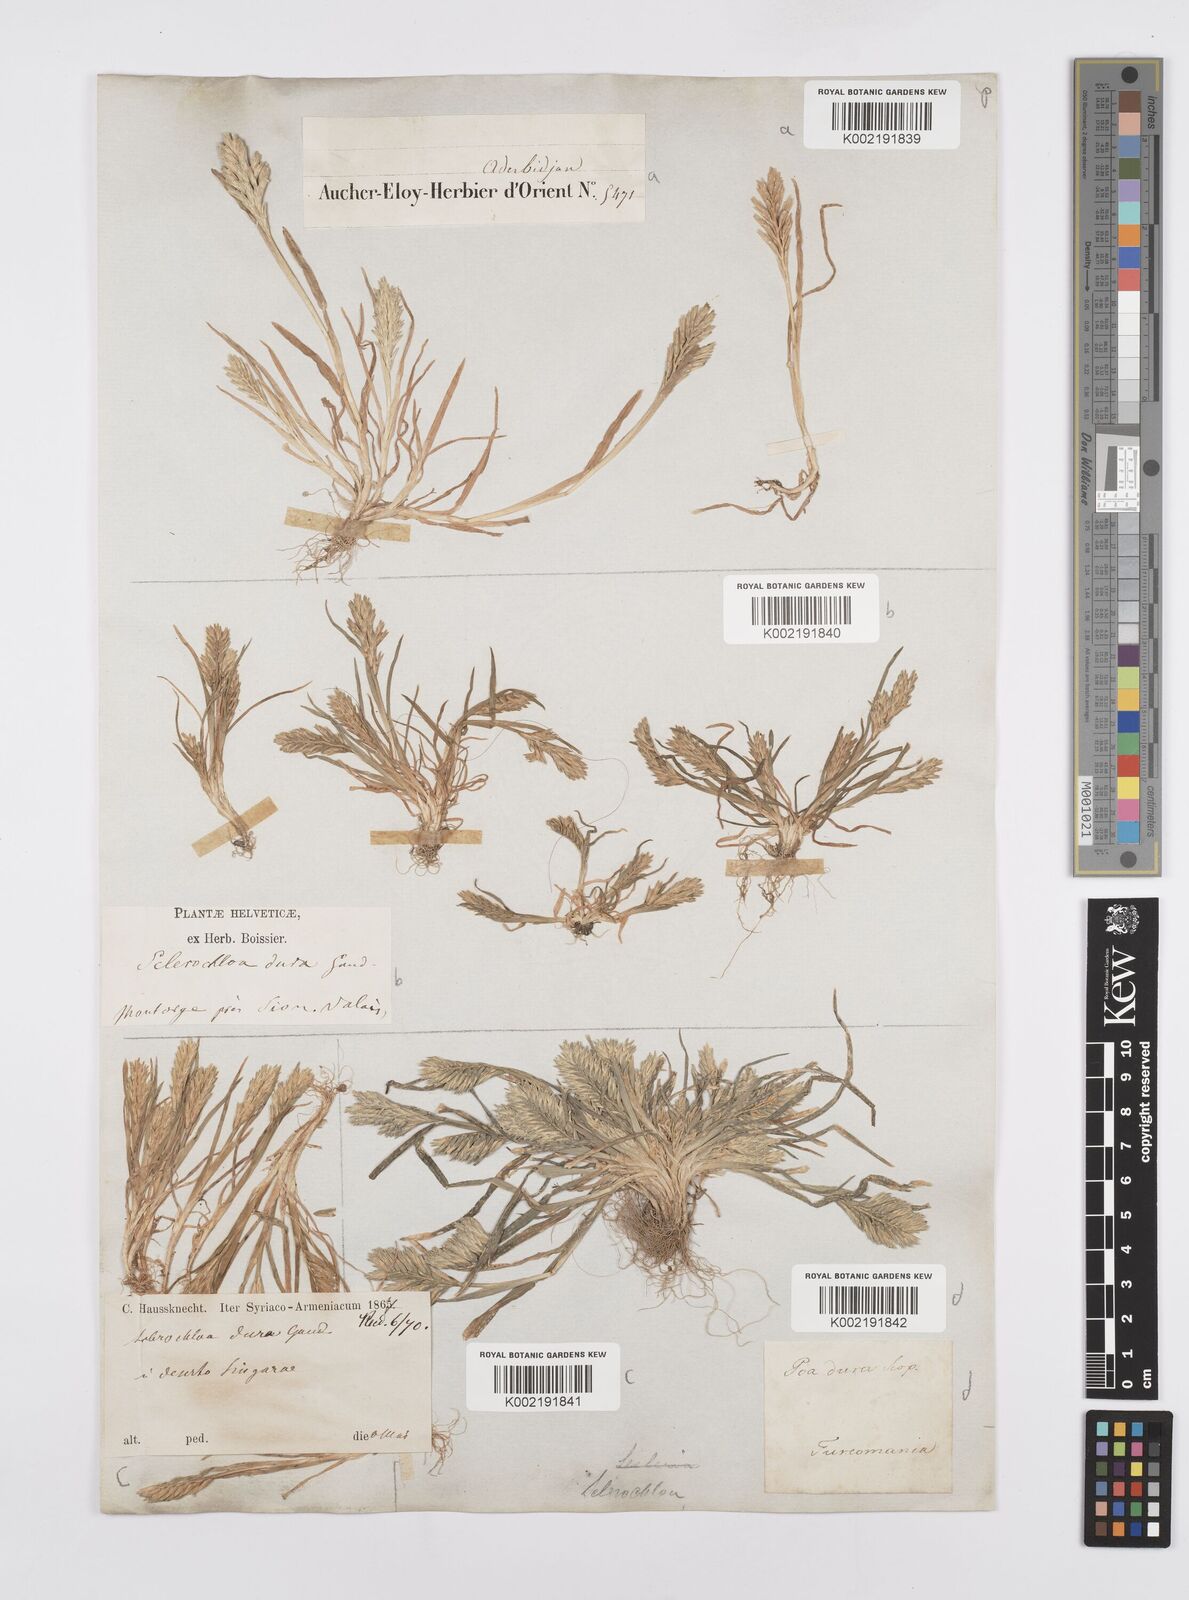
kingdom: Plantae
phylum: Tracheophyta
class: Liliopsida
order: Poales
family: Poaceae
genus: Sclerochloa
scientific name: Sclerochloa dura
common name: Common hardgrass
